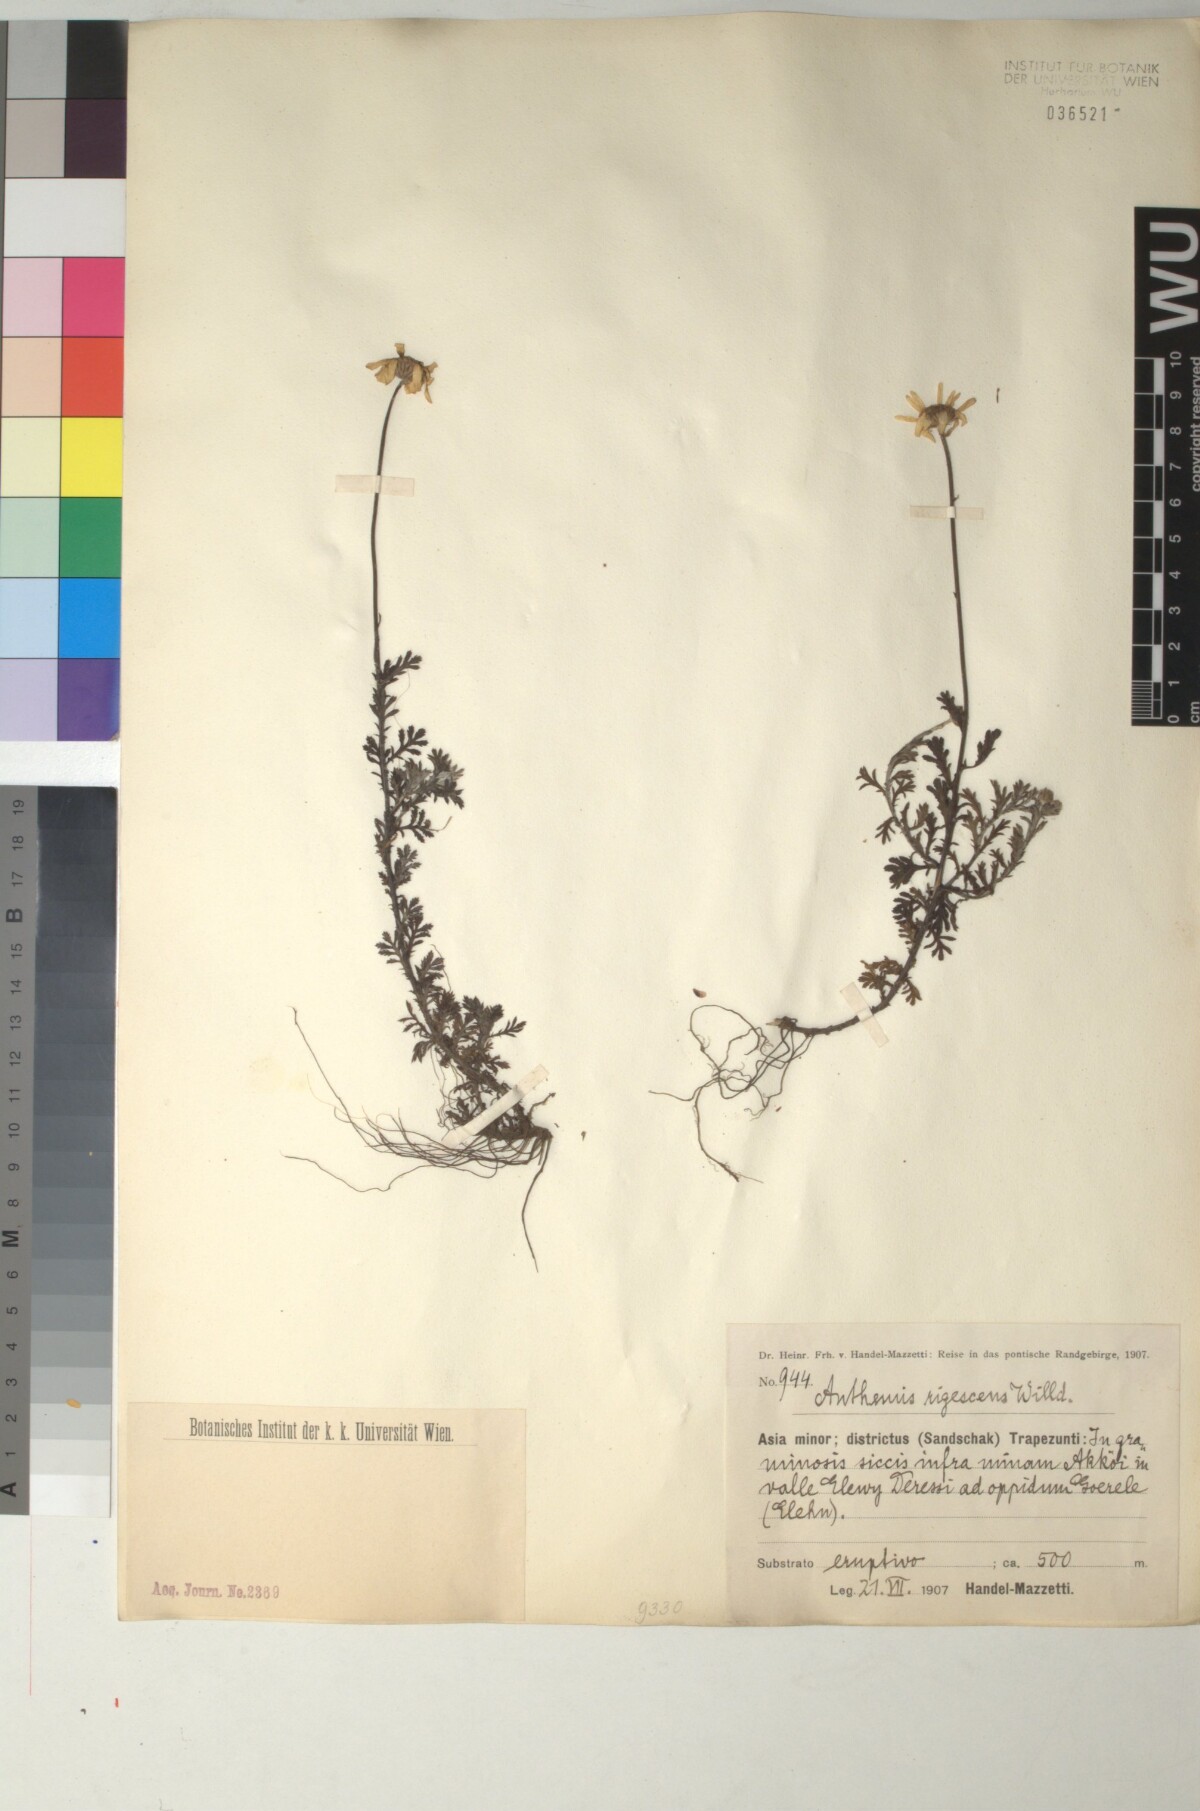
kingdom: Plantae
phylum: Tracheophyta
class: Magnoliopsida
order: Asterales
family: Asteraceae
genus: Cota
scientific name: Cota triumfetti
